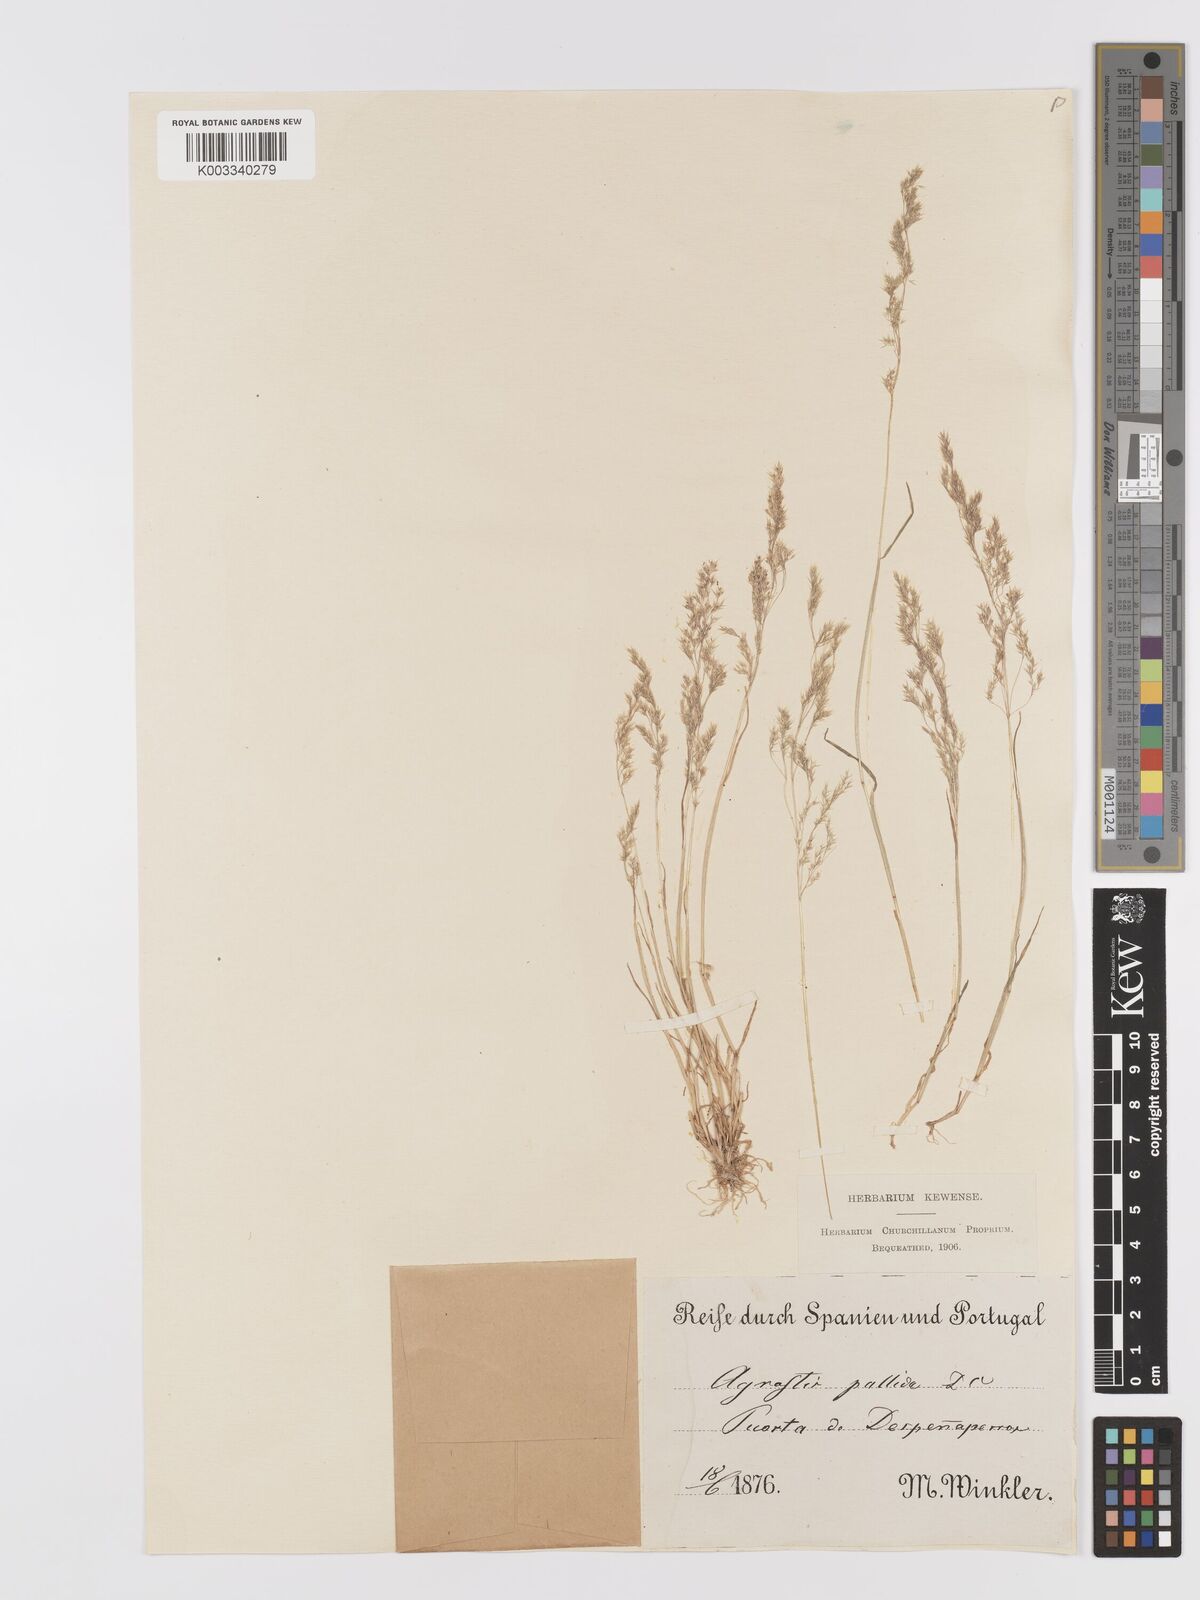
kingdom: Plantae
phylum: Tracheophyta
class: Liliopsida
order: Poales
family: Poaceae
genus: Agrostis
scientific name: Agrostis pourretii
